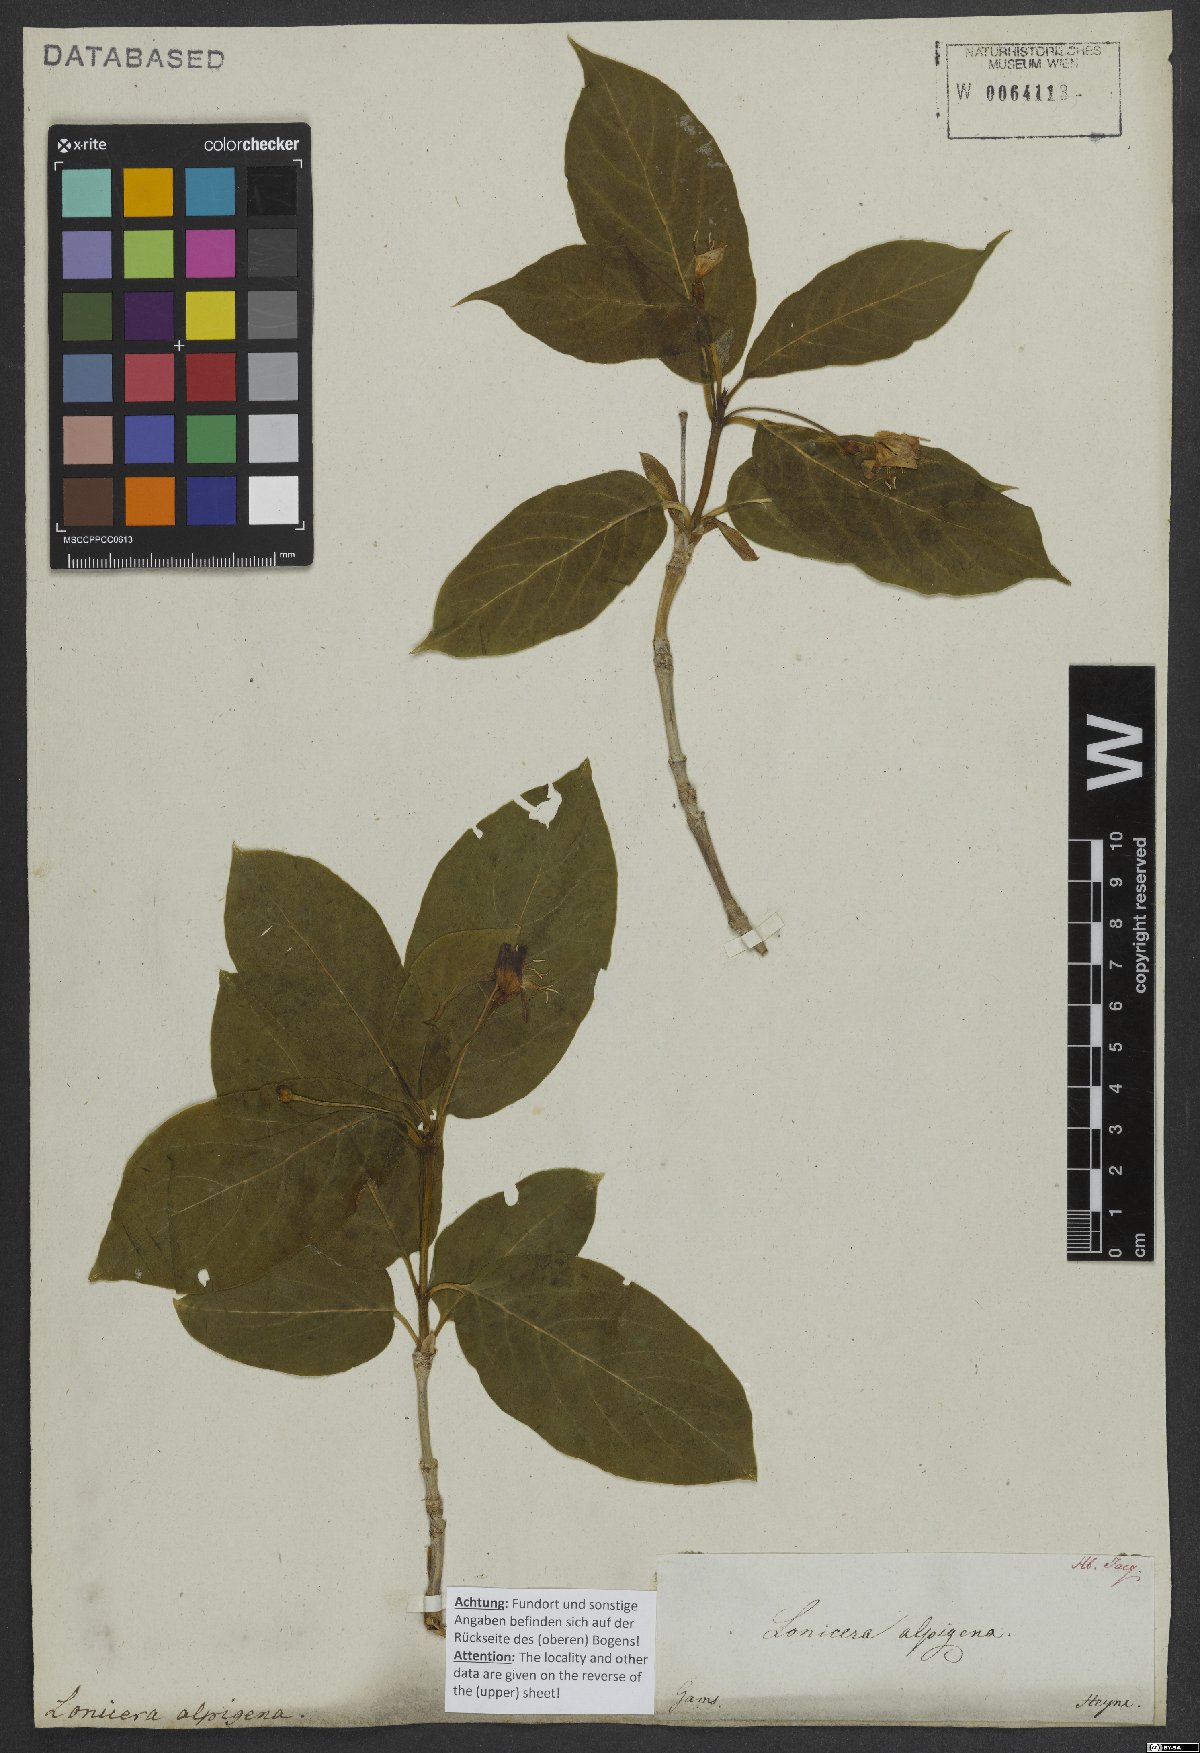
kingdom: Plantae
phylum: Tracheophyta
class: Magnoliopsida
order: Dipsacales
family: Caprifoliaceae
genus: Lonicera
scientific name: Lonicera alpigena
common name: Alpine honeysuckle
